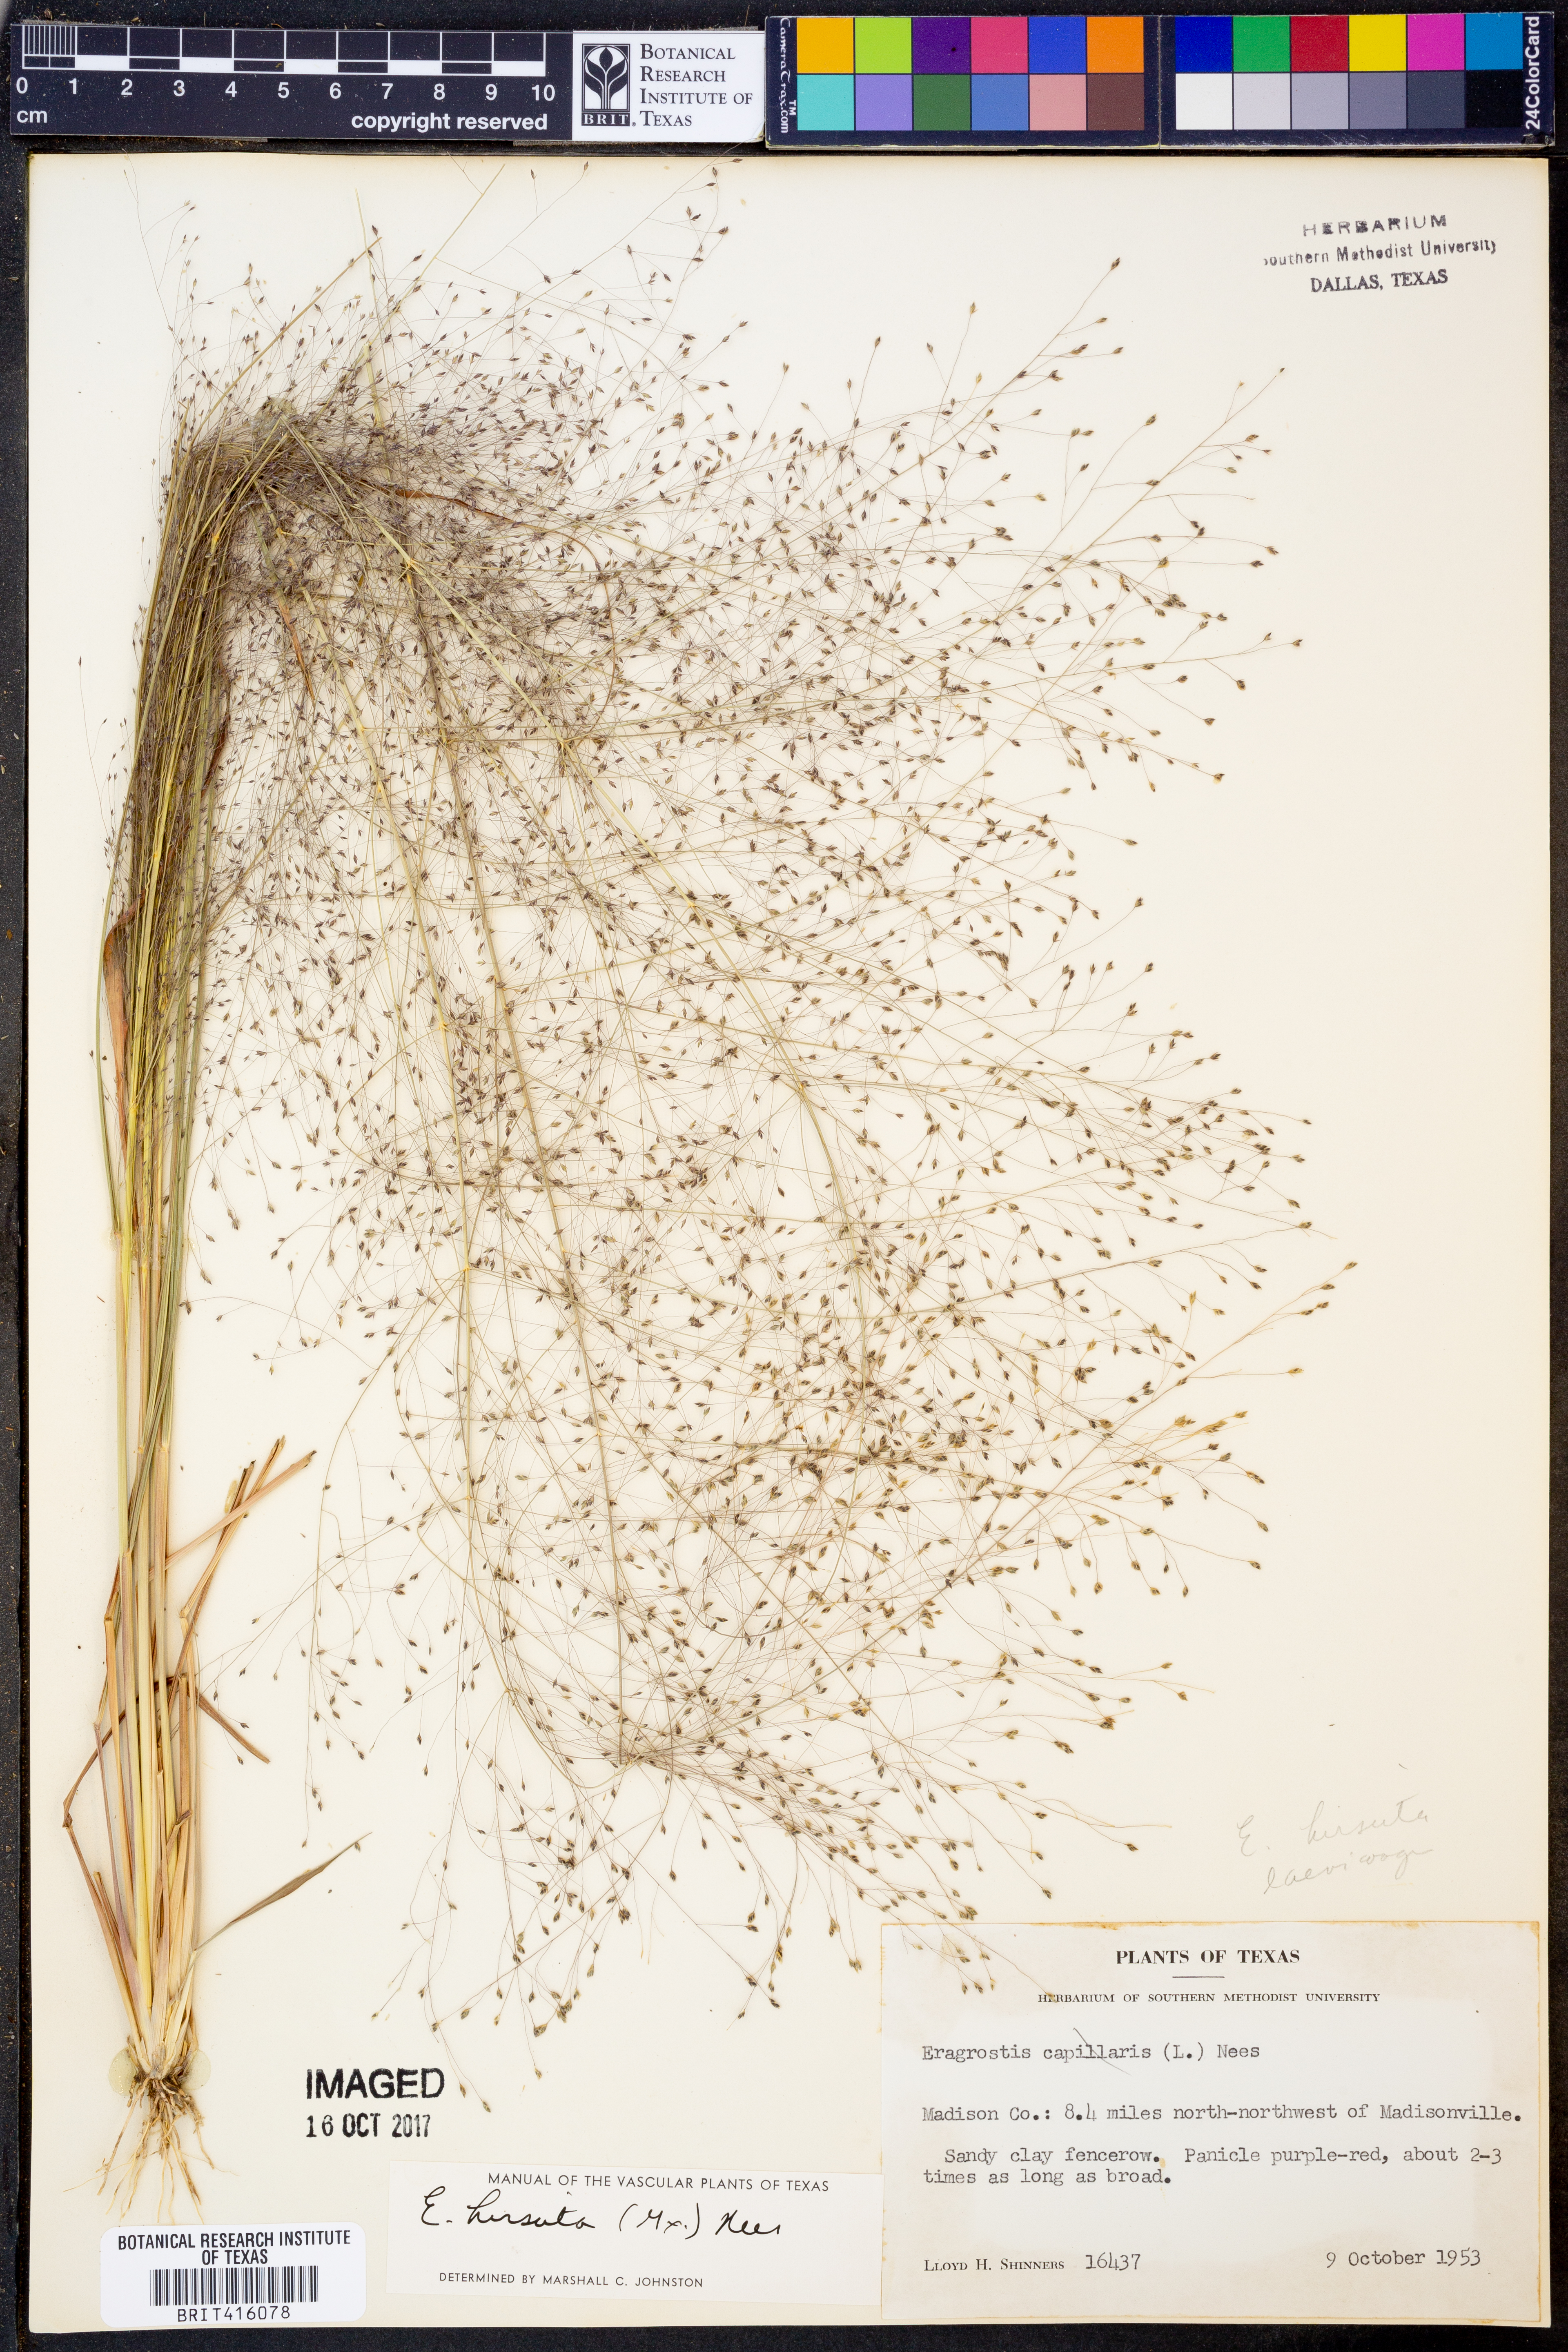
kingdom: Plantae
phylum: Tracheophyta
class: Liliopsida
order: Poales
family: Poaceae
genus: Eragrostis
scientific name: Eragrostis hirsuta
